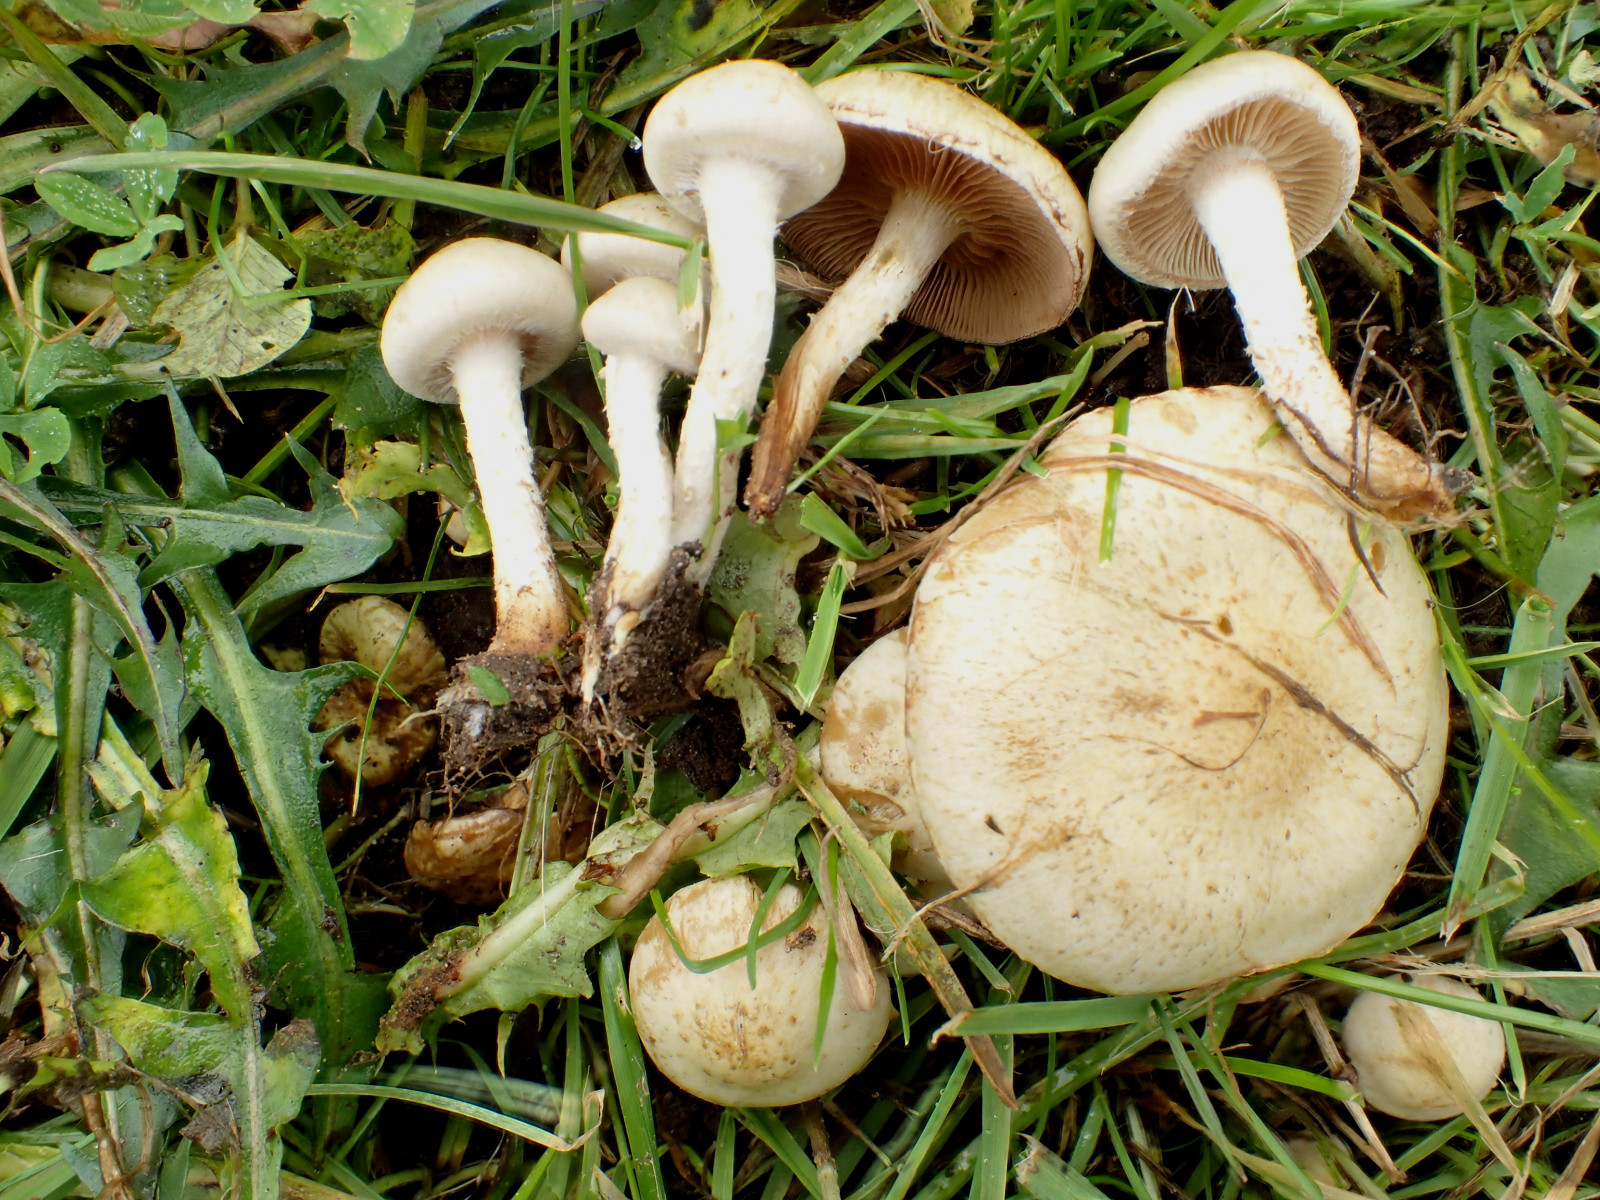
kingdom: Fungi
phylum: Basidiomycota
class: Agaricomycetes
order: Agaricales
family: Strophariaceae
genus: Pholiota
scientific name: Pholiota gummosa
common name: grøngul skælhat
